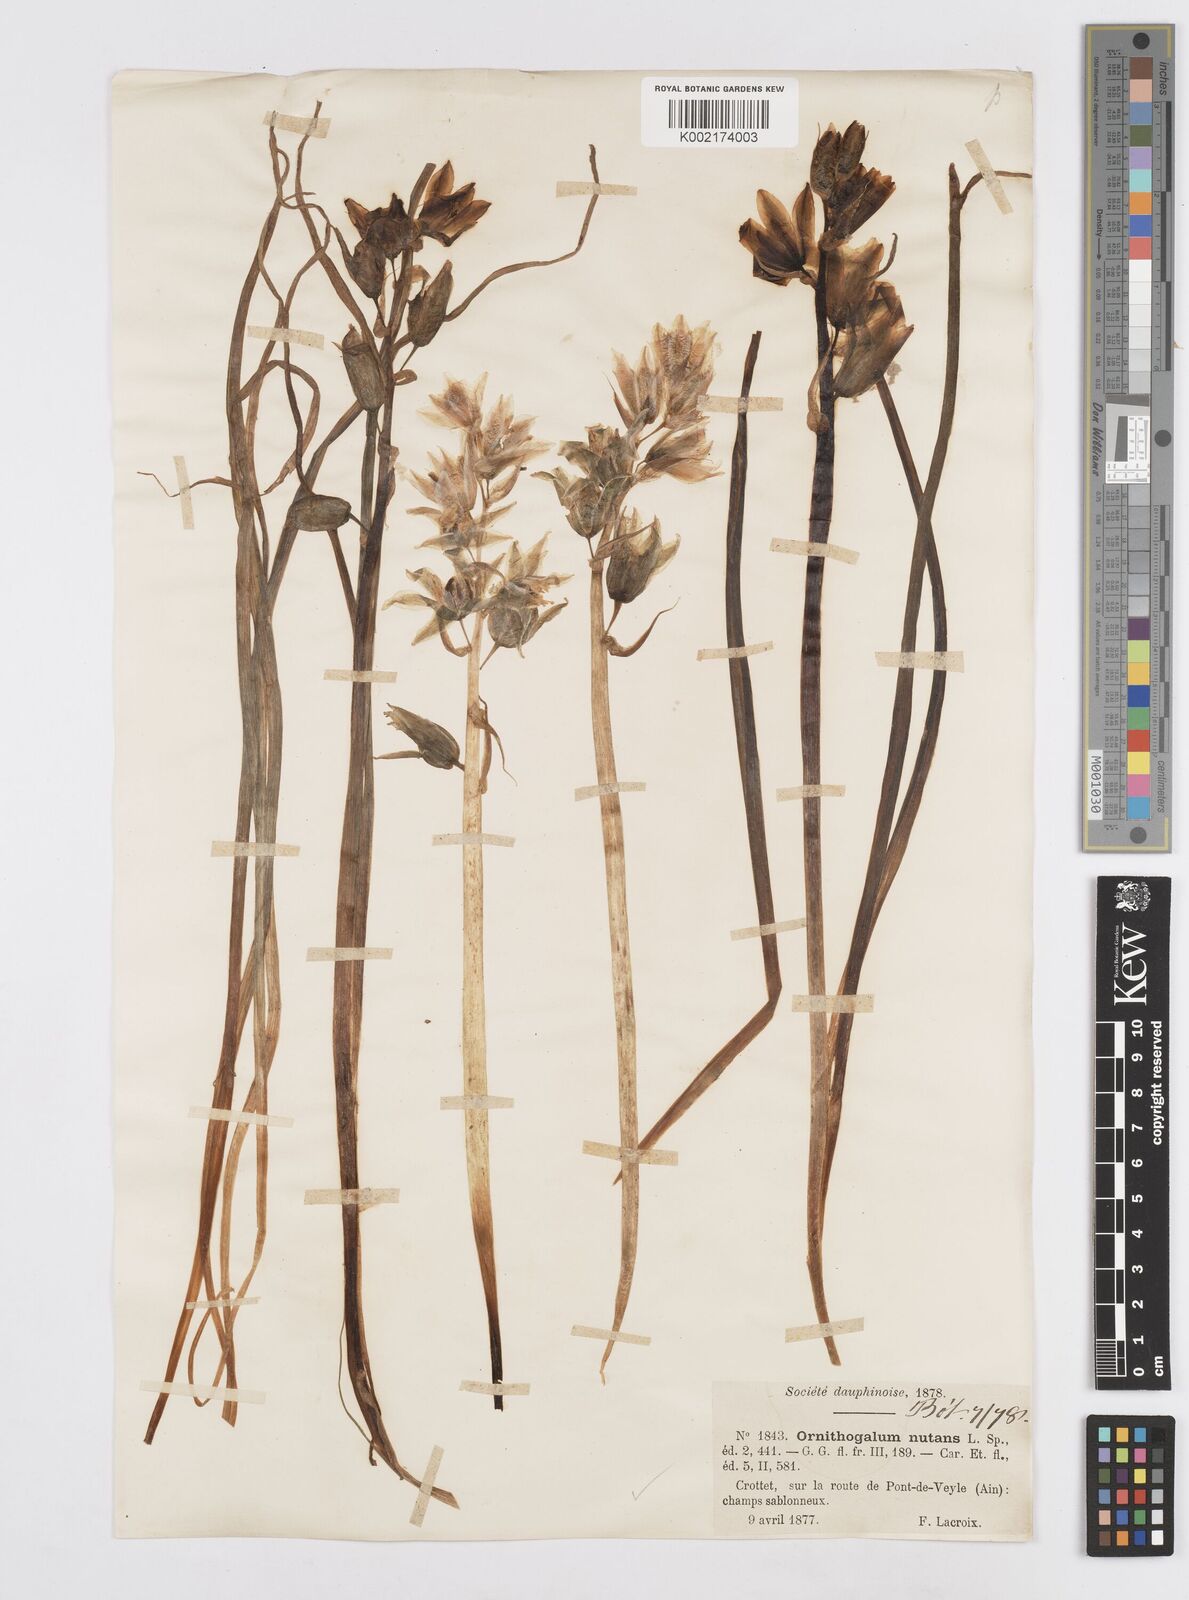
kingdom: Plantae
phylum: Tracheophyta
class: Liliopsida
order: Asparagales
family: Asparagaceae
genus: Ornithogalum
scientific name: Ornithogalum nutans
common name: Drooping star-of-bethlehem
